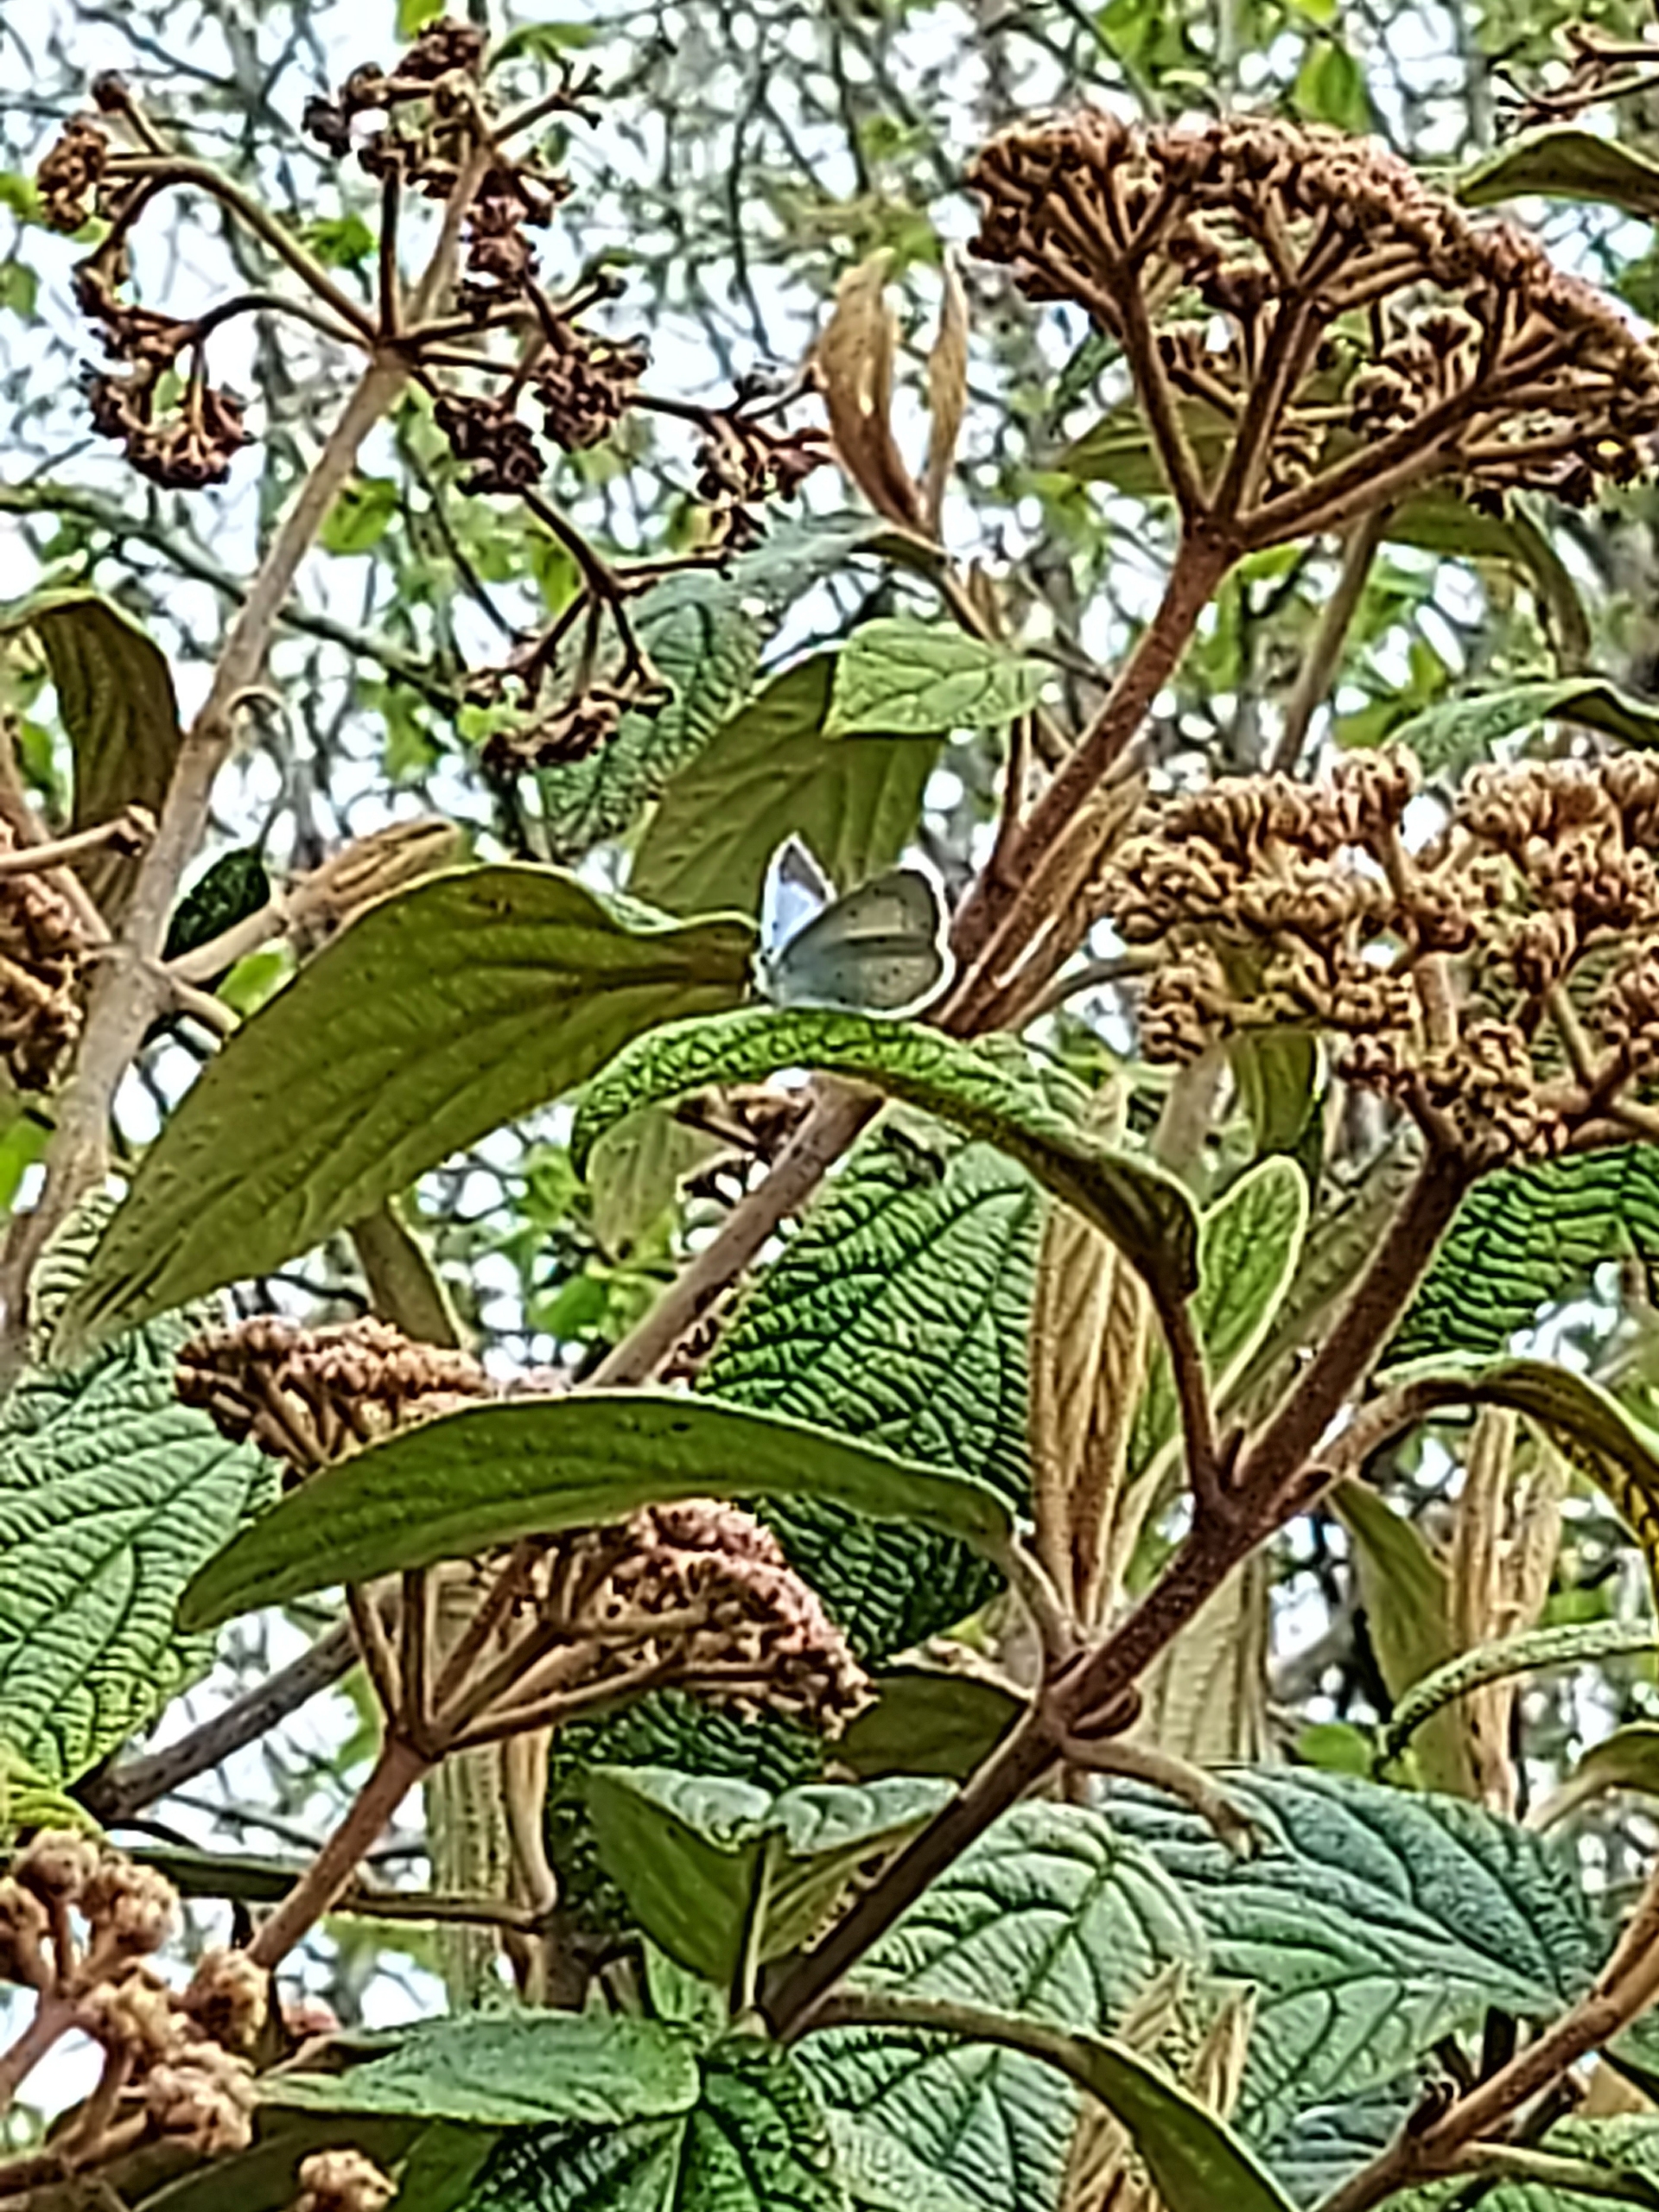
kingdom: Animalia
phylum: Arthropoda
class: Insecta
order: Lepidoptera
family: Lycaenidae
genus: Celastrina
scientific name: Celastrina argiolus
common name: Skovblåfugl
